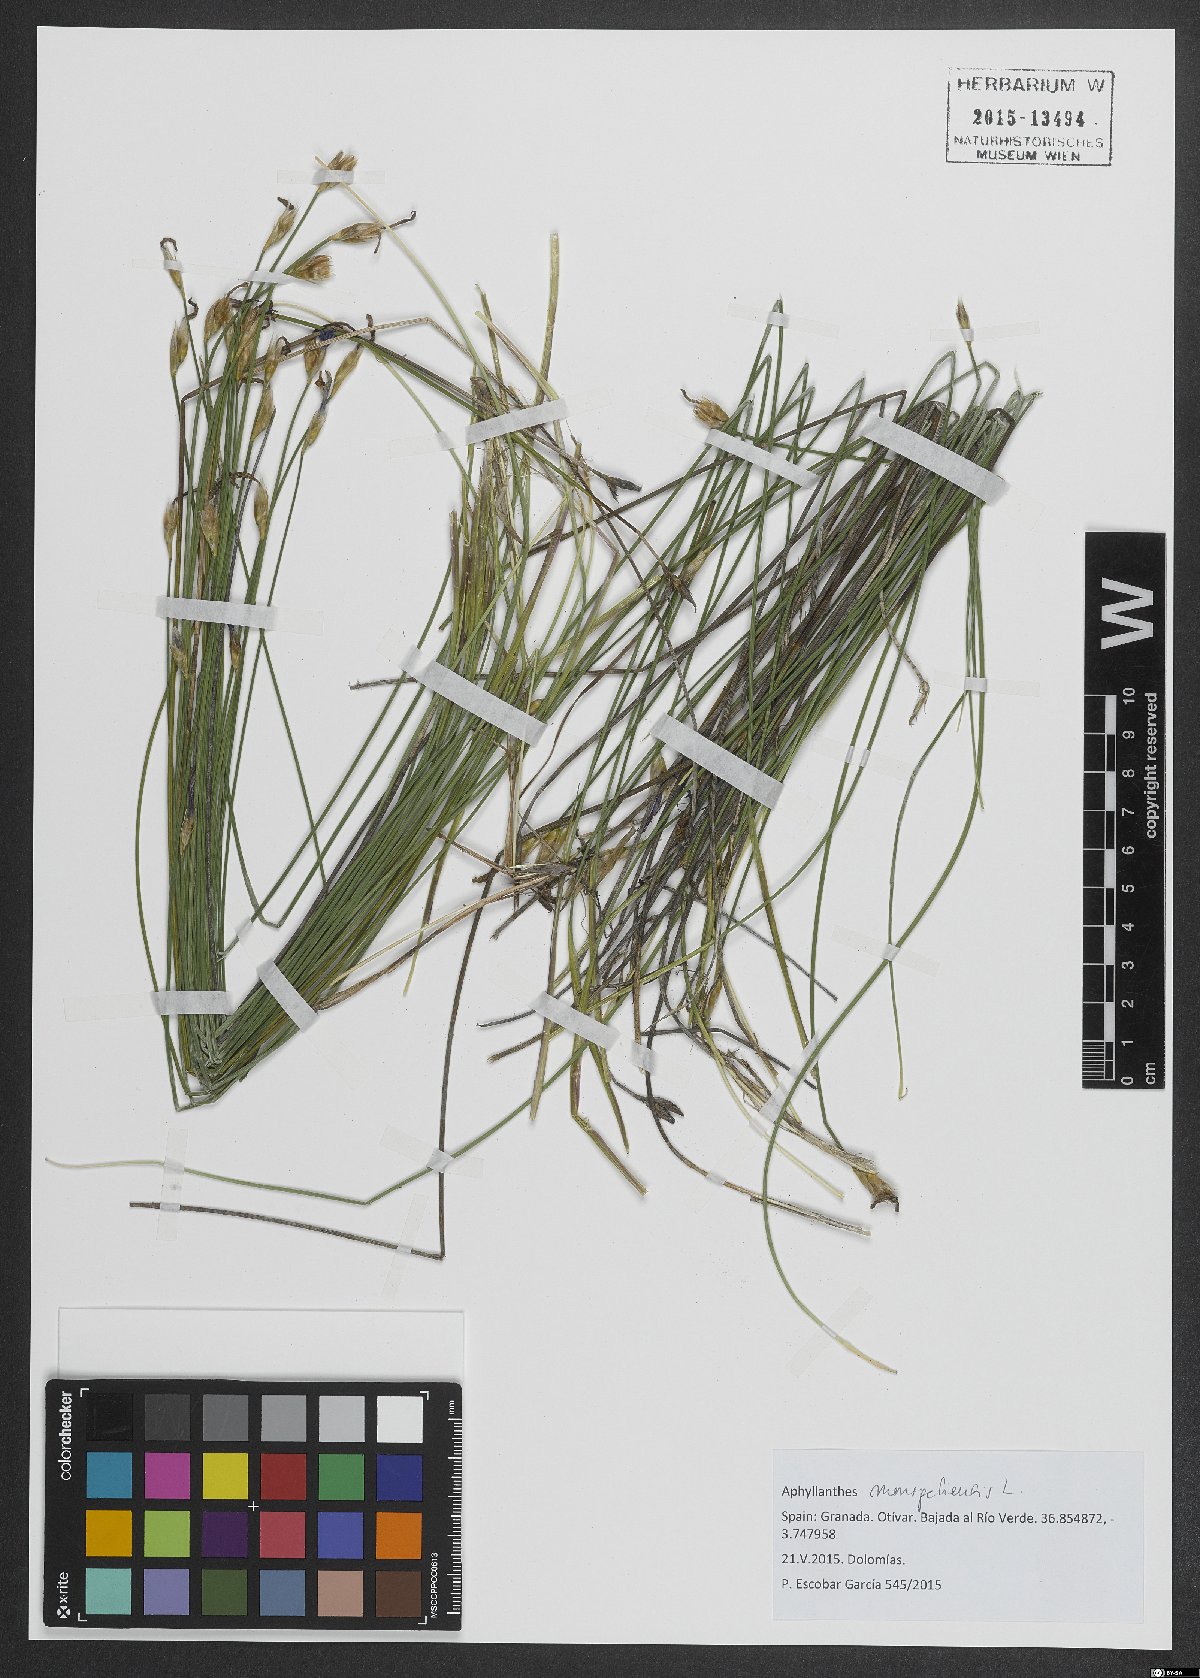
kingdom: Plantae
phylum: Tracheophyta
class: Liliopsida
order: Asparagales
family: Asparagaceae
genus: Aphyllanthes
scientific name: Aphyllanthes monspeliensis
